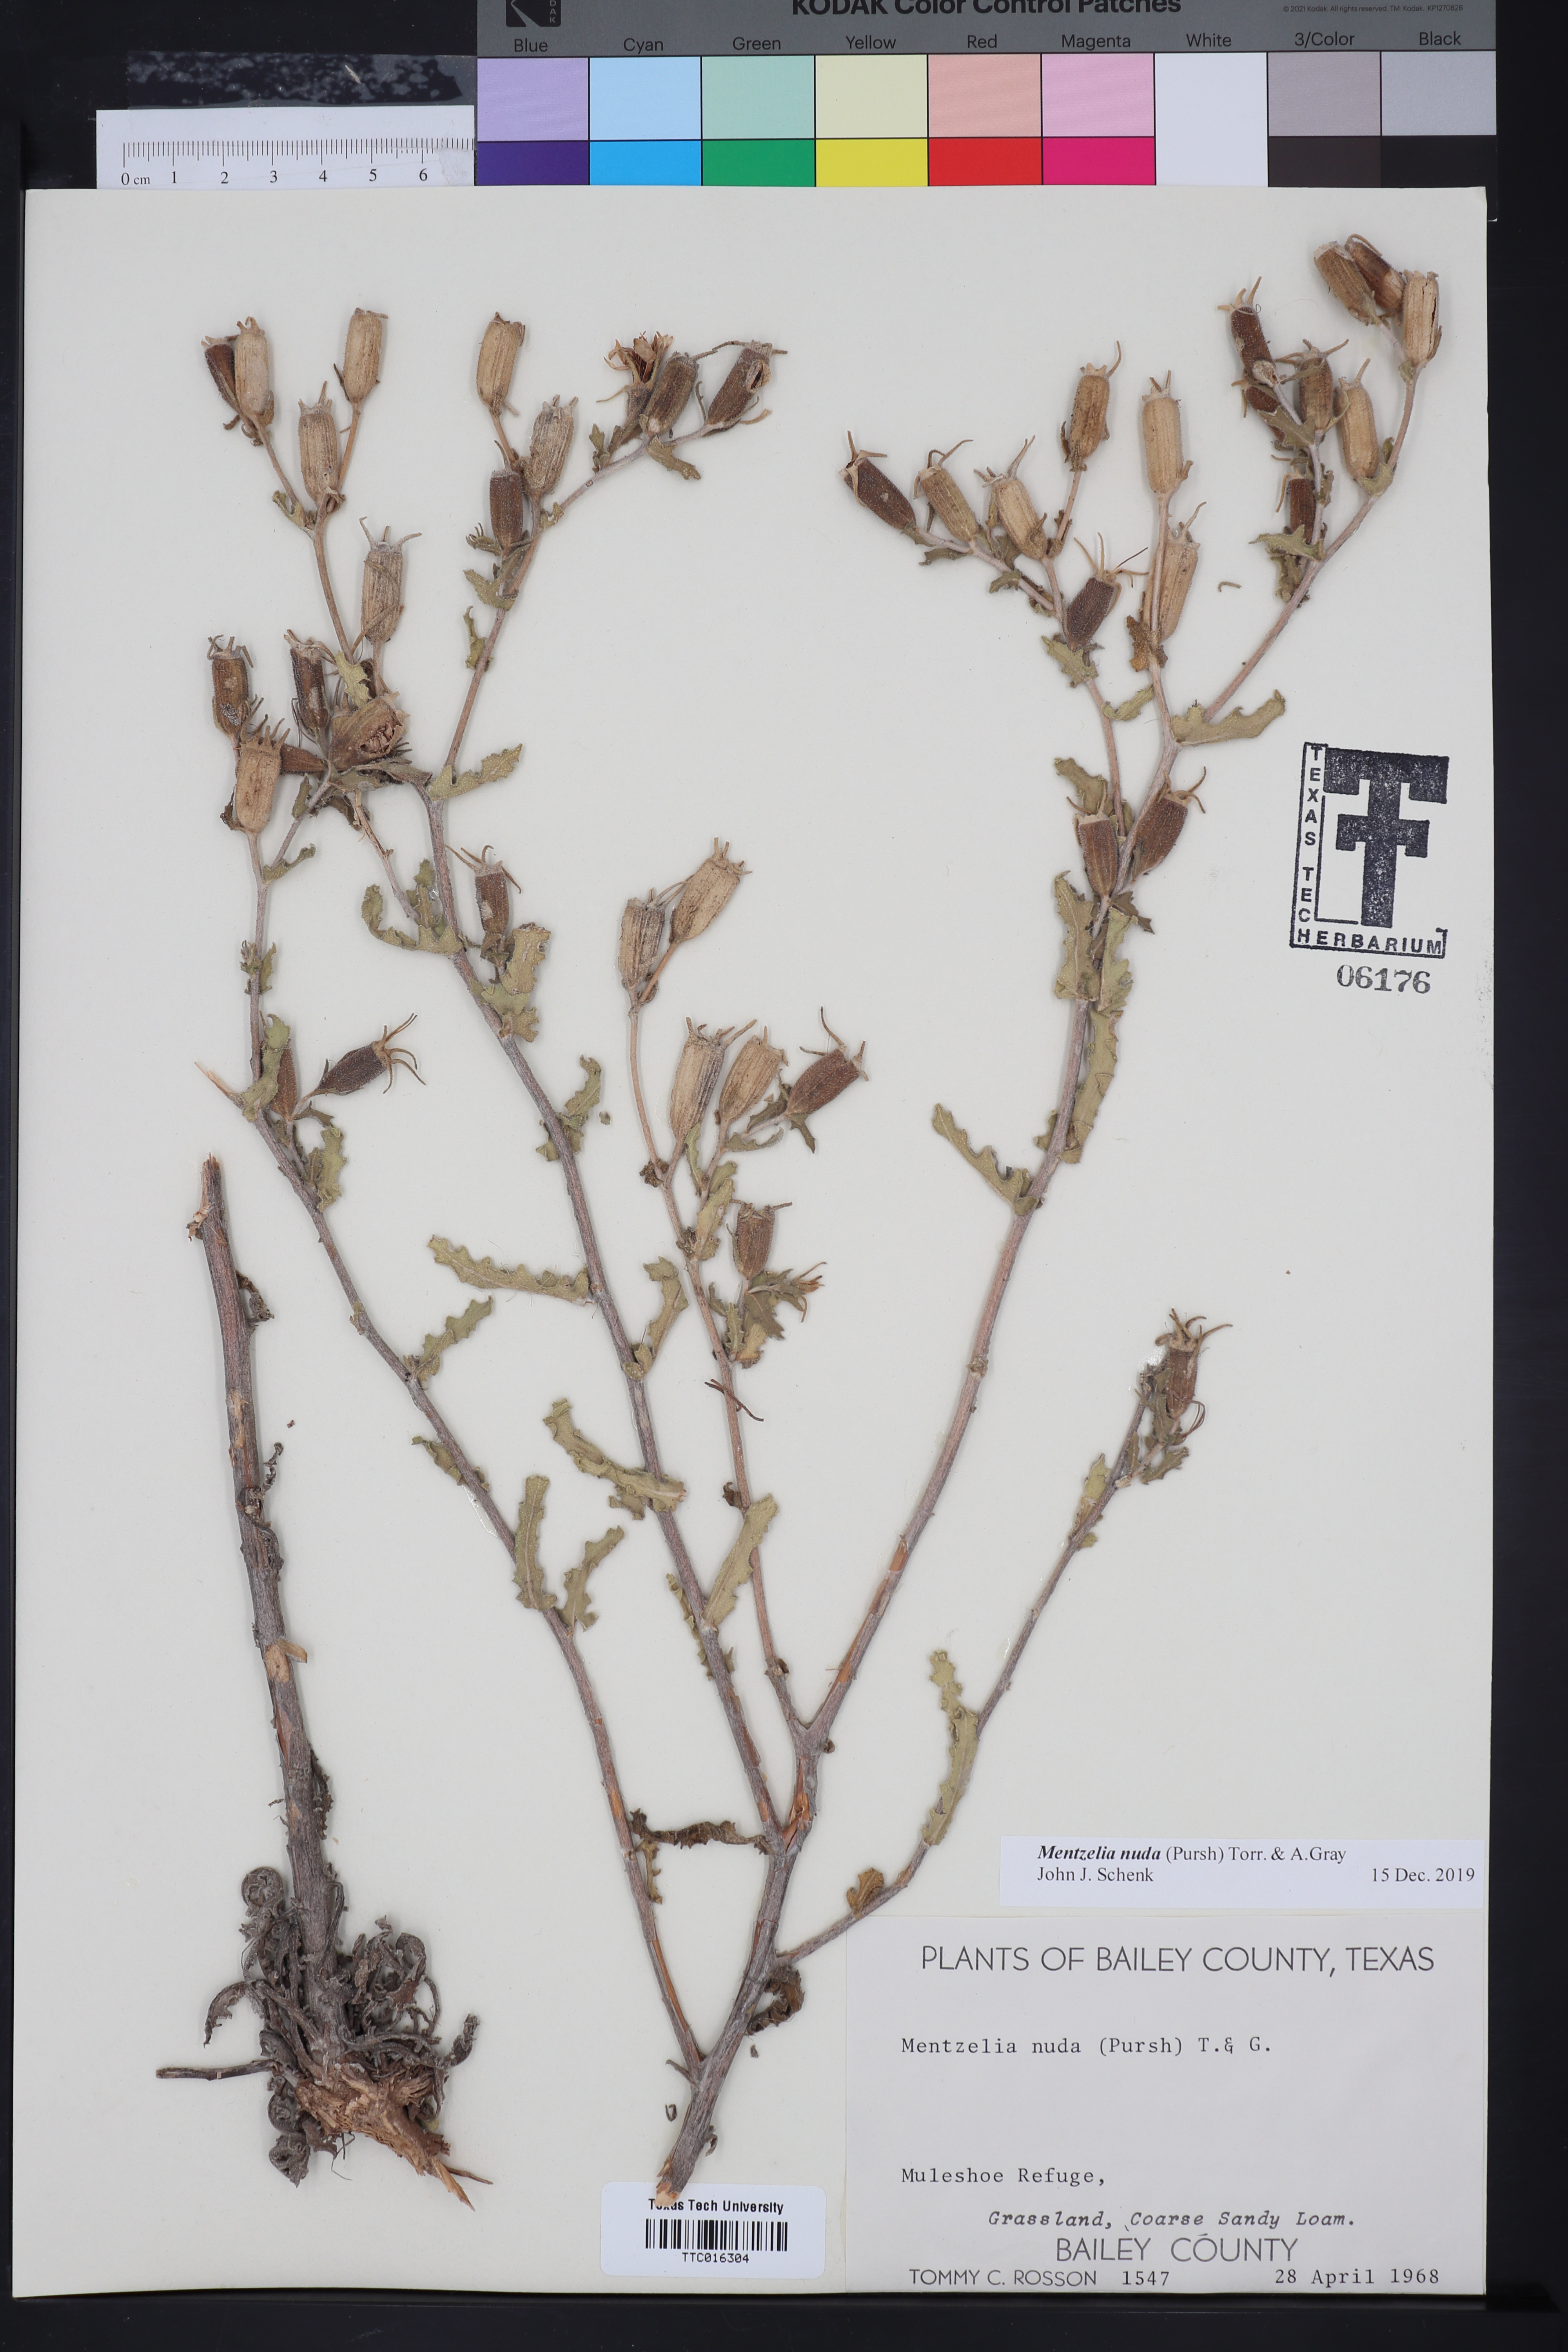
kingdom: Plantae
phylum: Tracheophyta
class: Magnoliopsida
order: Cornales
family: Loasaceae
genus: Mentzelia
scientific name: Mentzelia nuda
